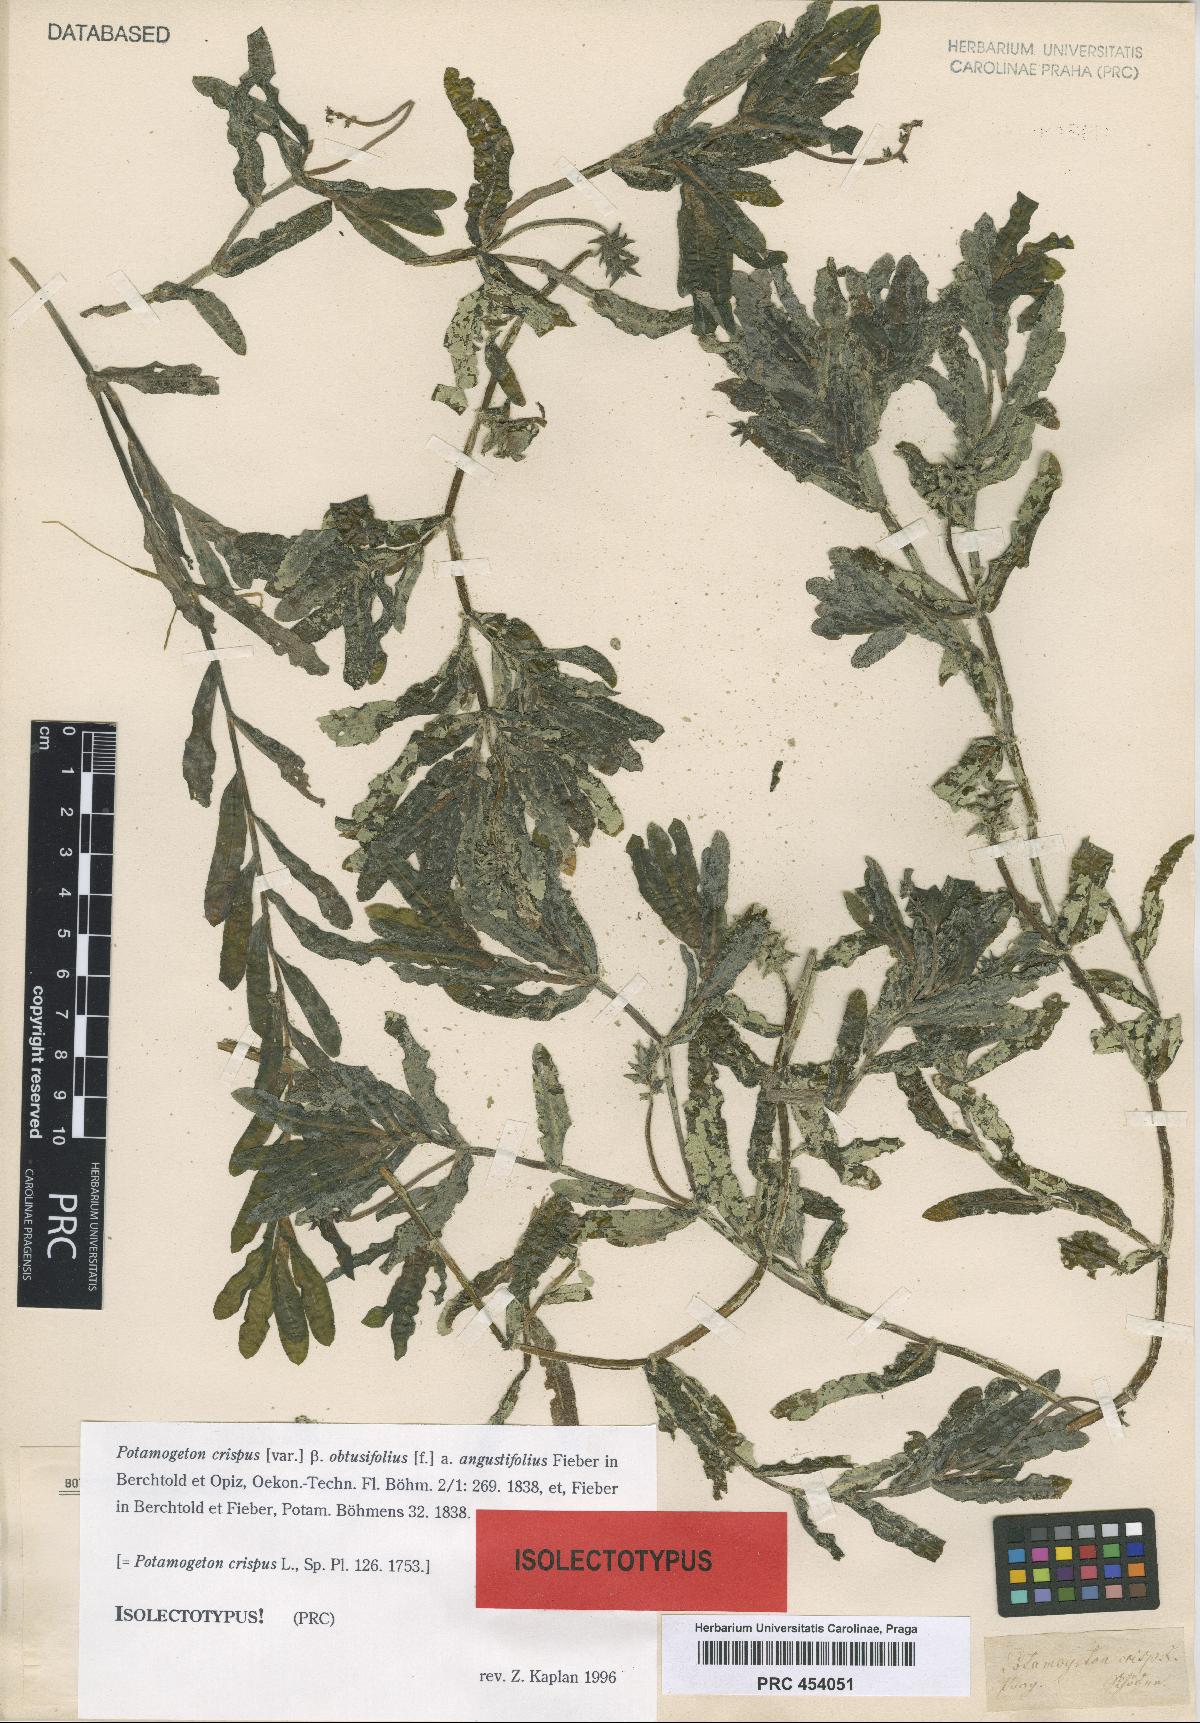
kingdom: Plantae
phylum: Tracheophyta
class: Liliopsida
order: Alismatales
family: Potamogetonaceae
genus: Potamogeton
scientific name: Potamogeton crispus
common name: Curled pondweed
